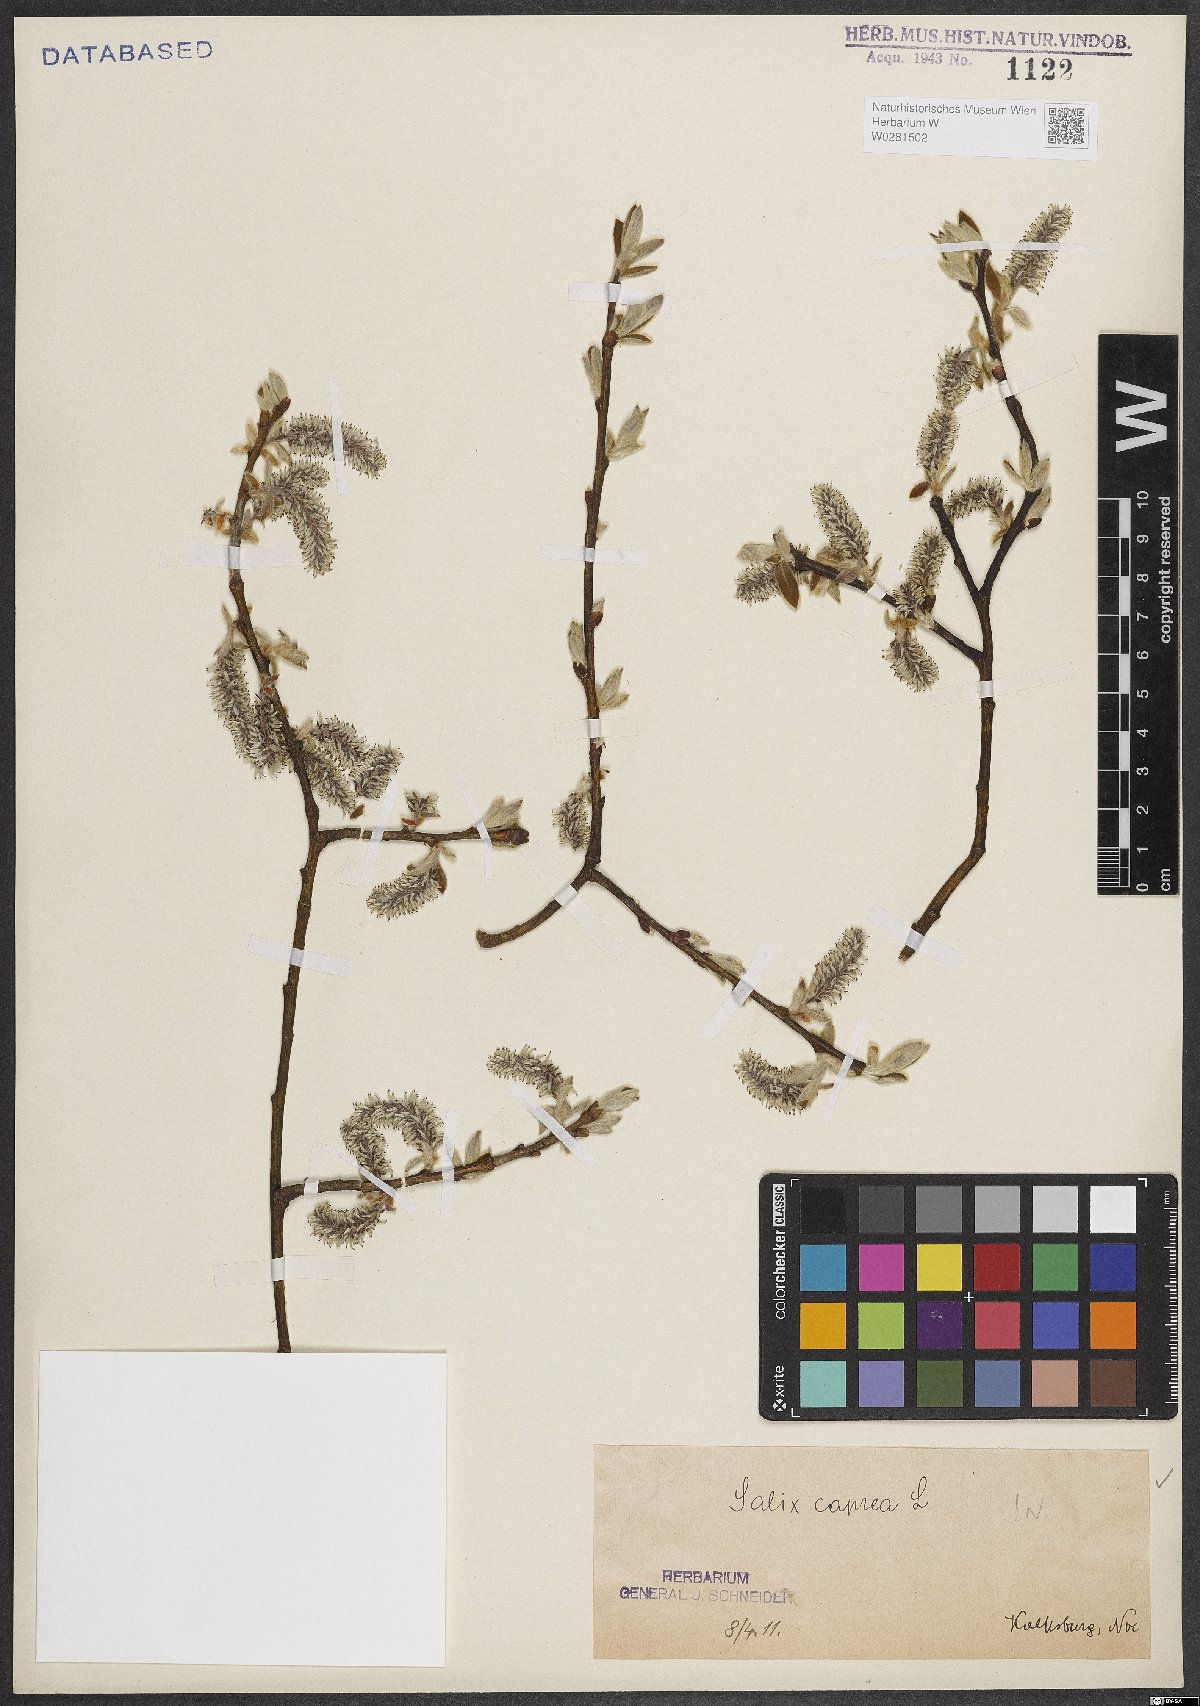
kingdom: Plantae
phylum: Tracheophyta
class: Magnoliopsida
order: Malpighiales
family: Salicaceae
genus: Salix
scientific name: Salix caprea
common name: Goat willow
